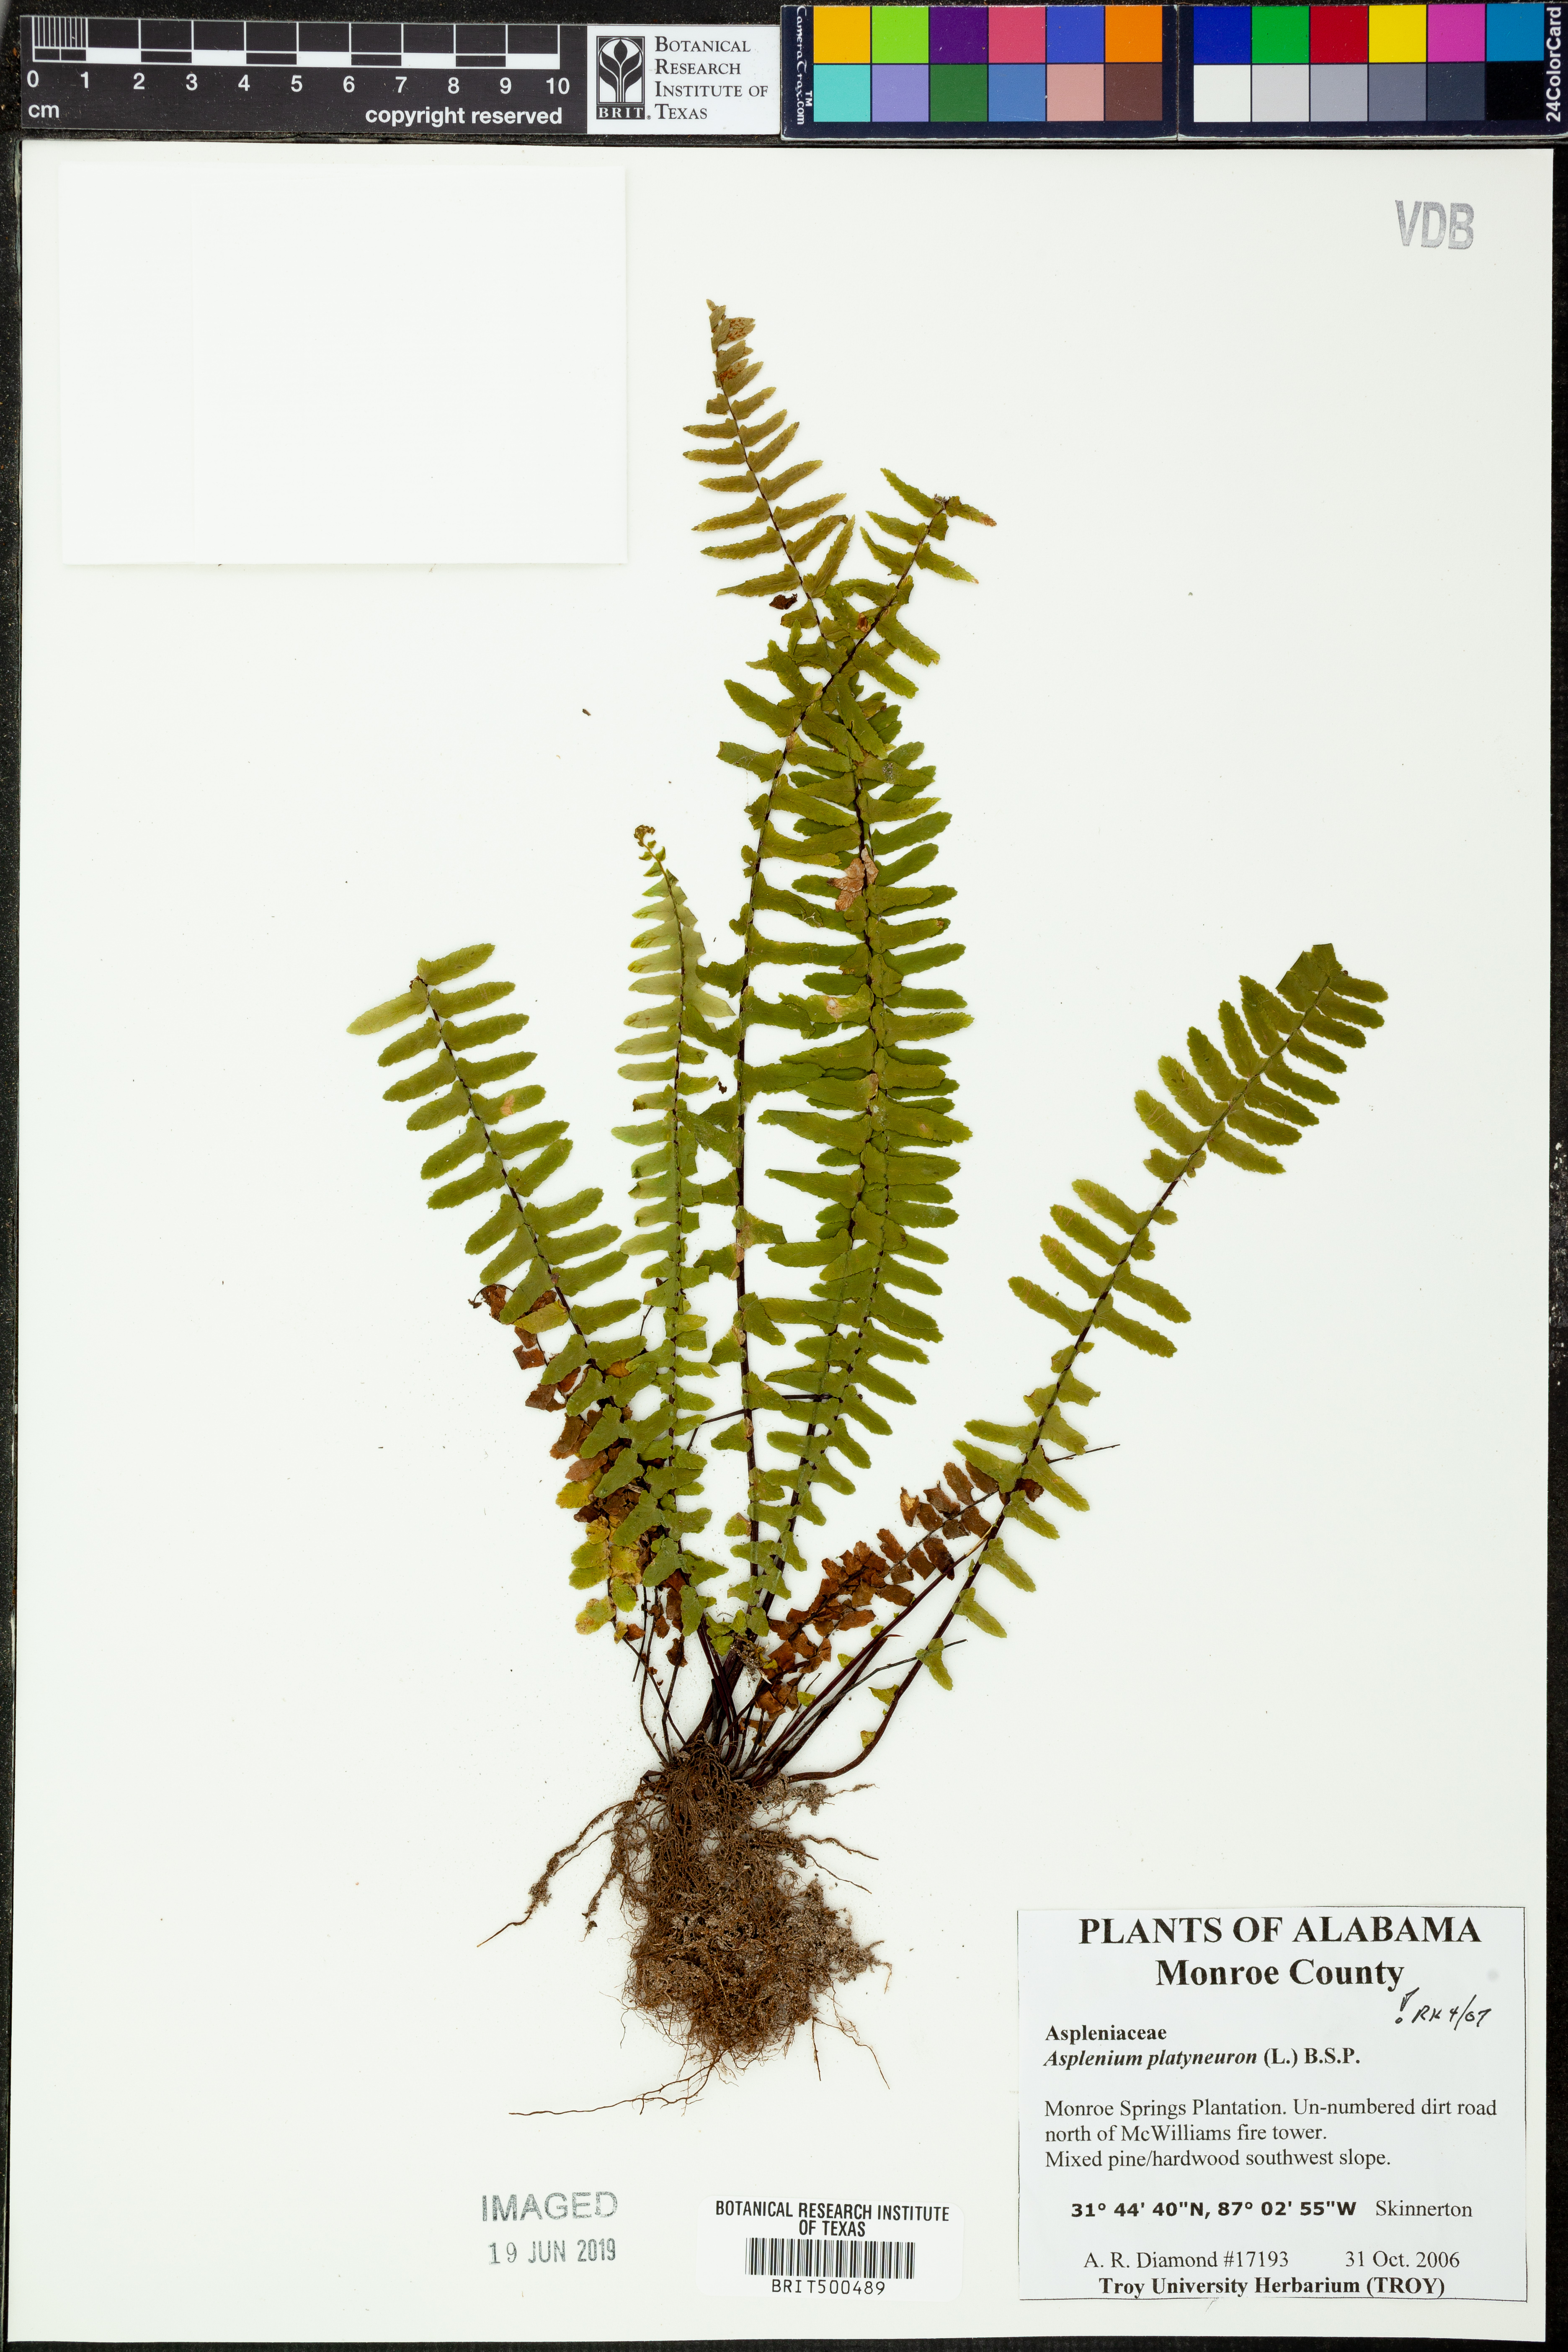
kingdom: Plantae
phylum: Tracheophyta
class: Polypodiopsida
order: Polypodiales
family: Aspleniaceae
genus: Asplenium
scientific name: Asplenium platyneuron
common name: Ebony spleenwort
